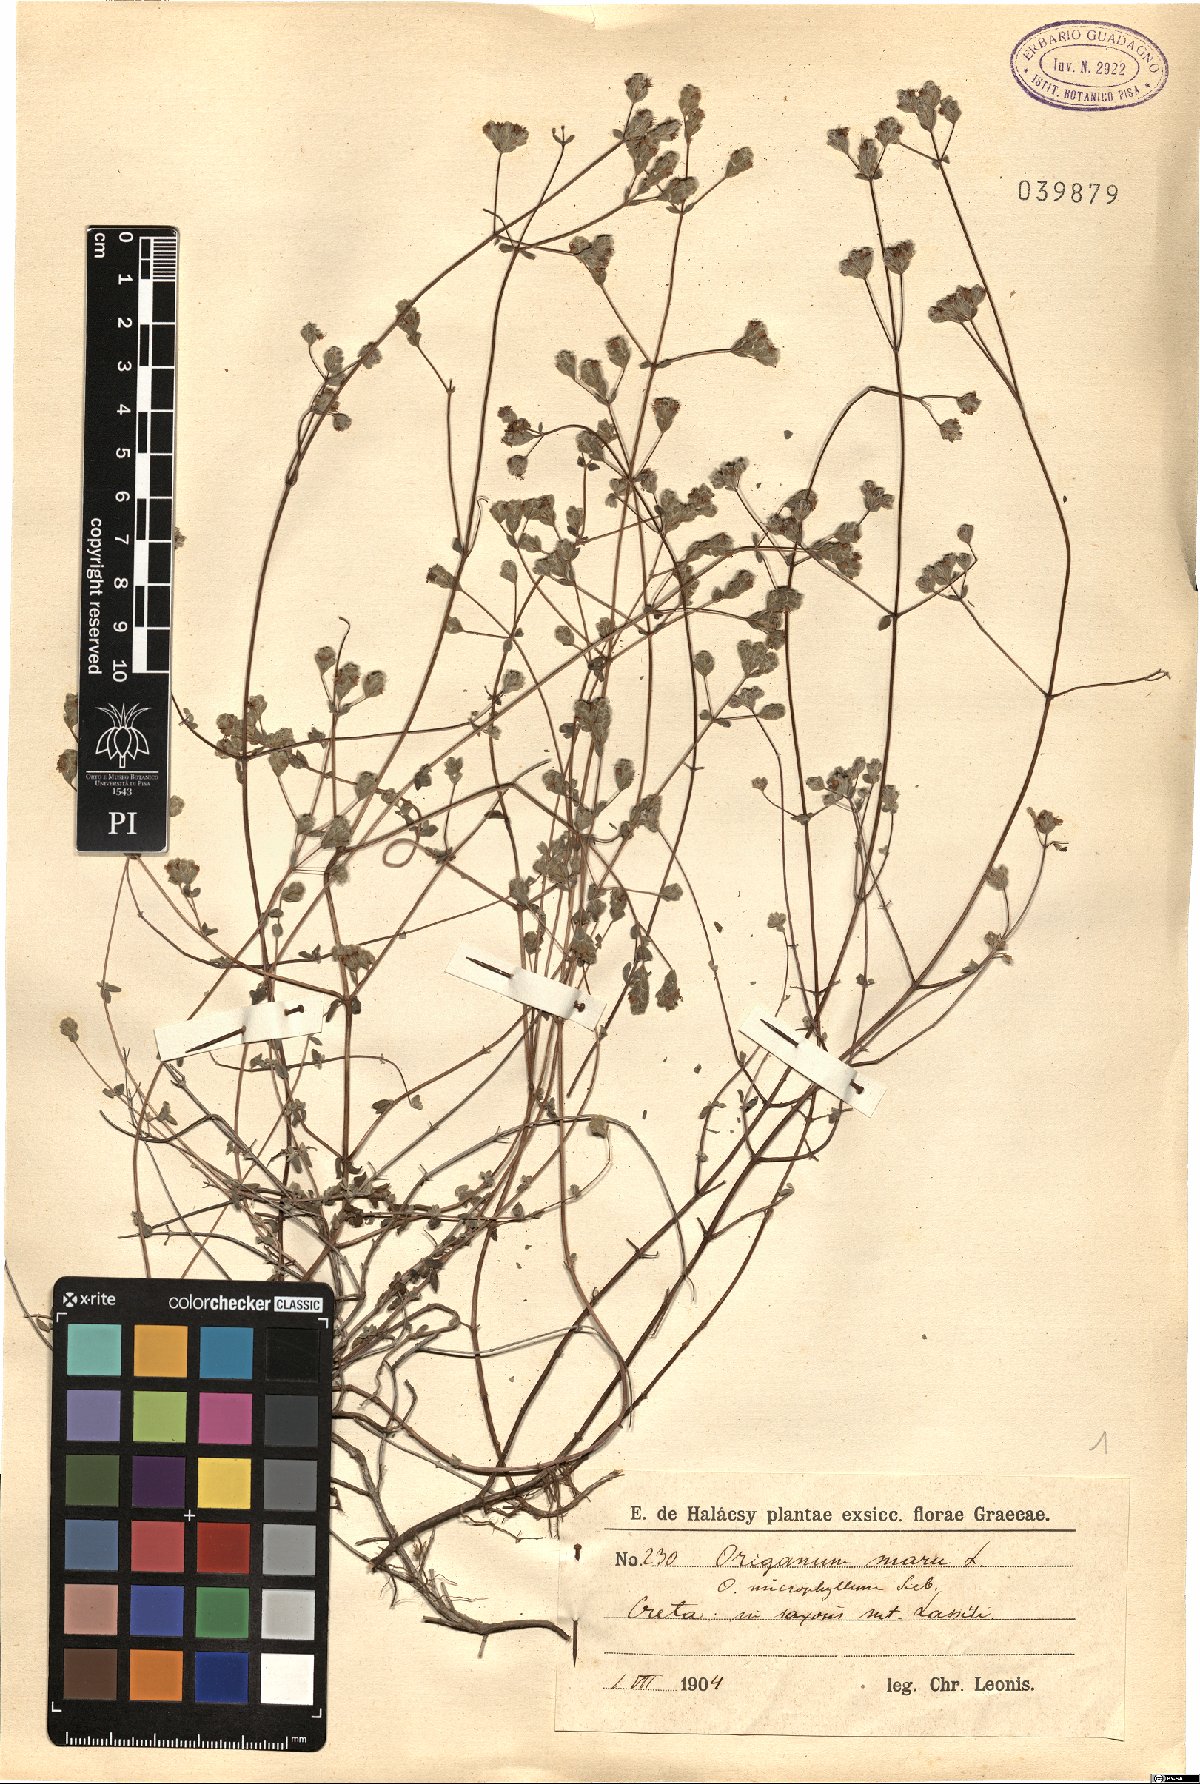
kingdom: Plantae
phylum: Tracheophyta
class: Magnoliopsida
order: Lamiales
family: Lamiaceae
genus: Origanum
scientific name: Origanum syriacum
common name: Biblical-hyssop
